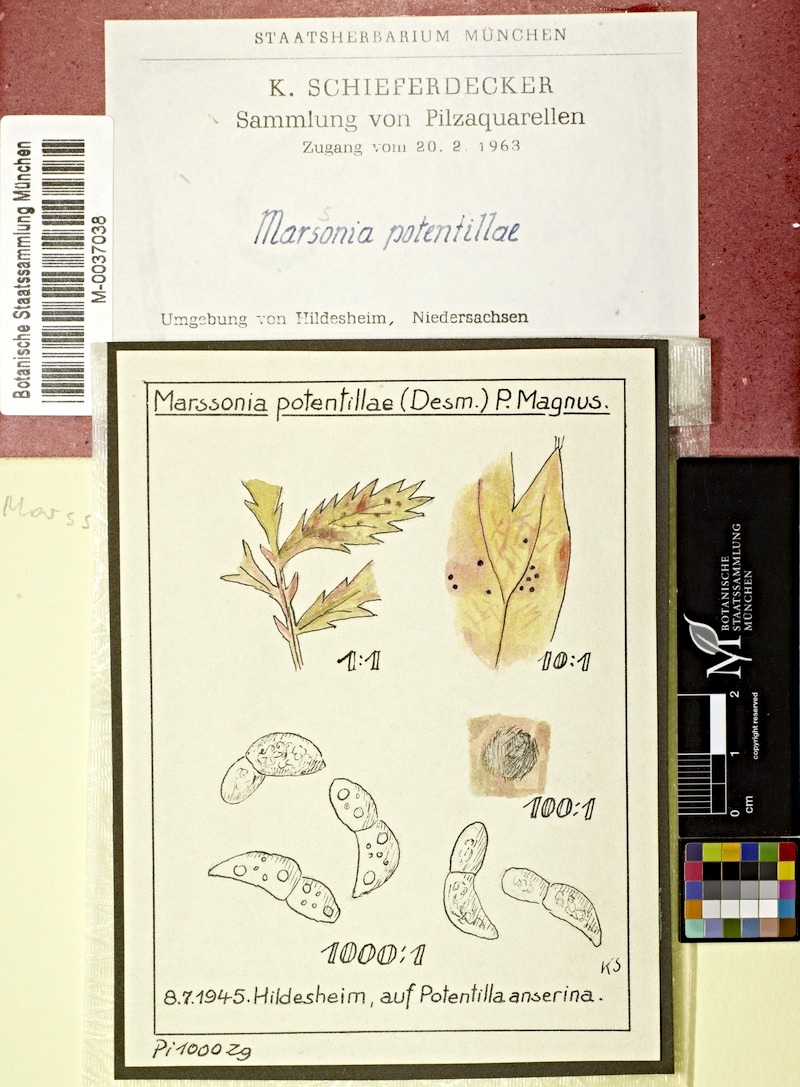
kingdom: Fungi
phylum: Ascomycota
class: Leotiomycetes
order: Helotiales
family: Drepanopezizaceae
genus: Diplocarpon
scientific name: Diplocarpon fragariae
